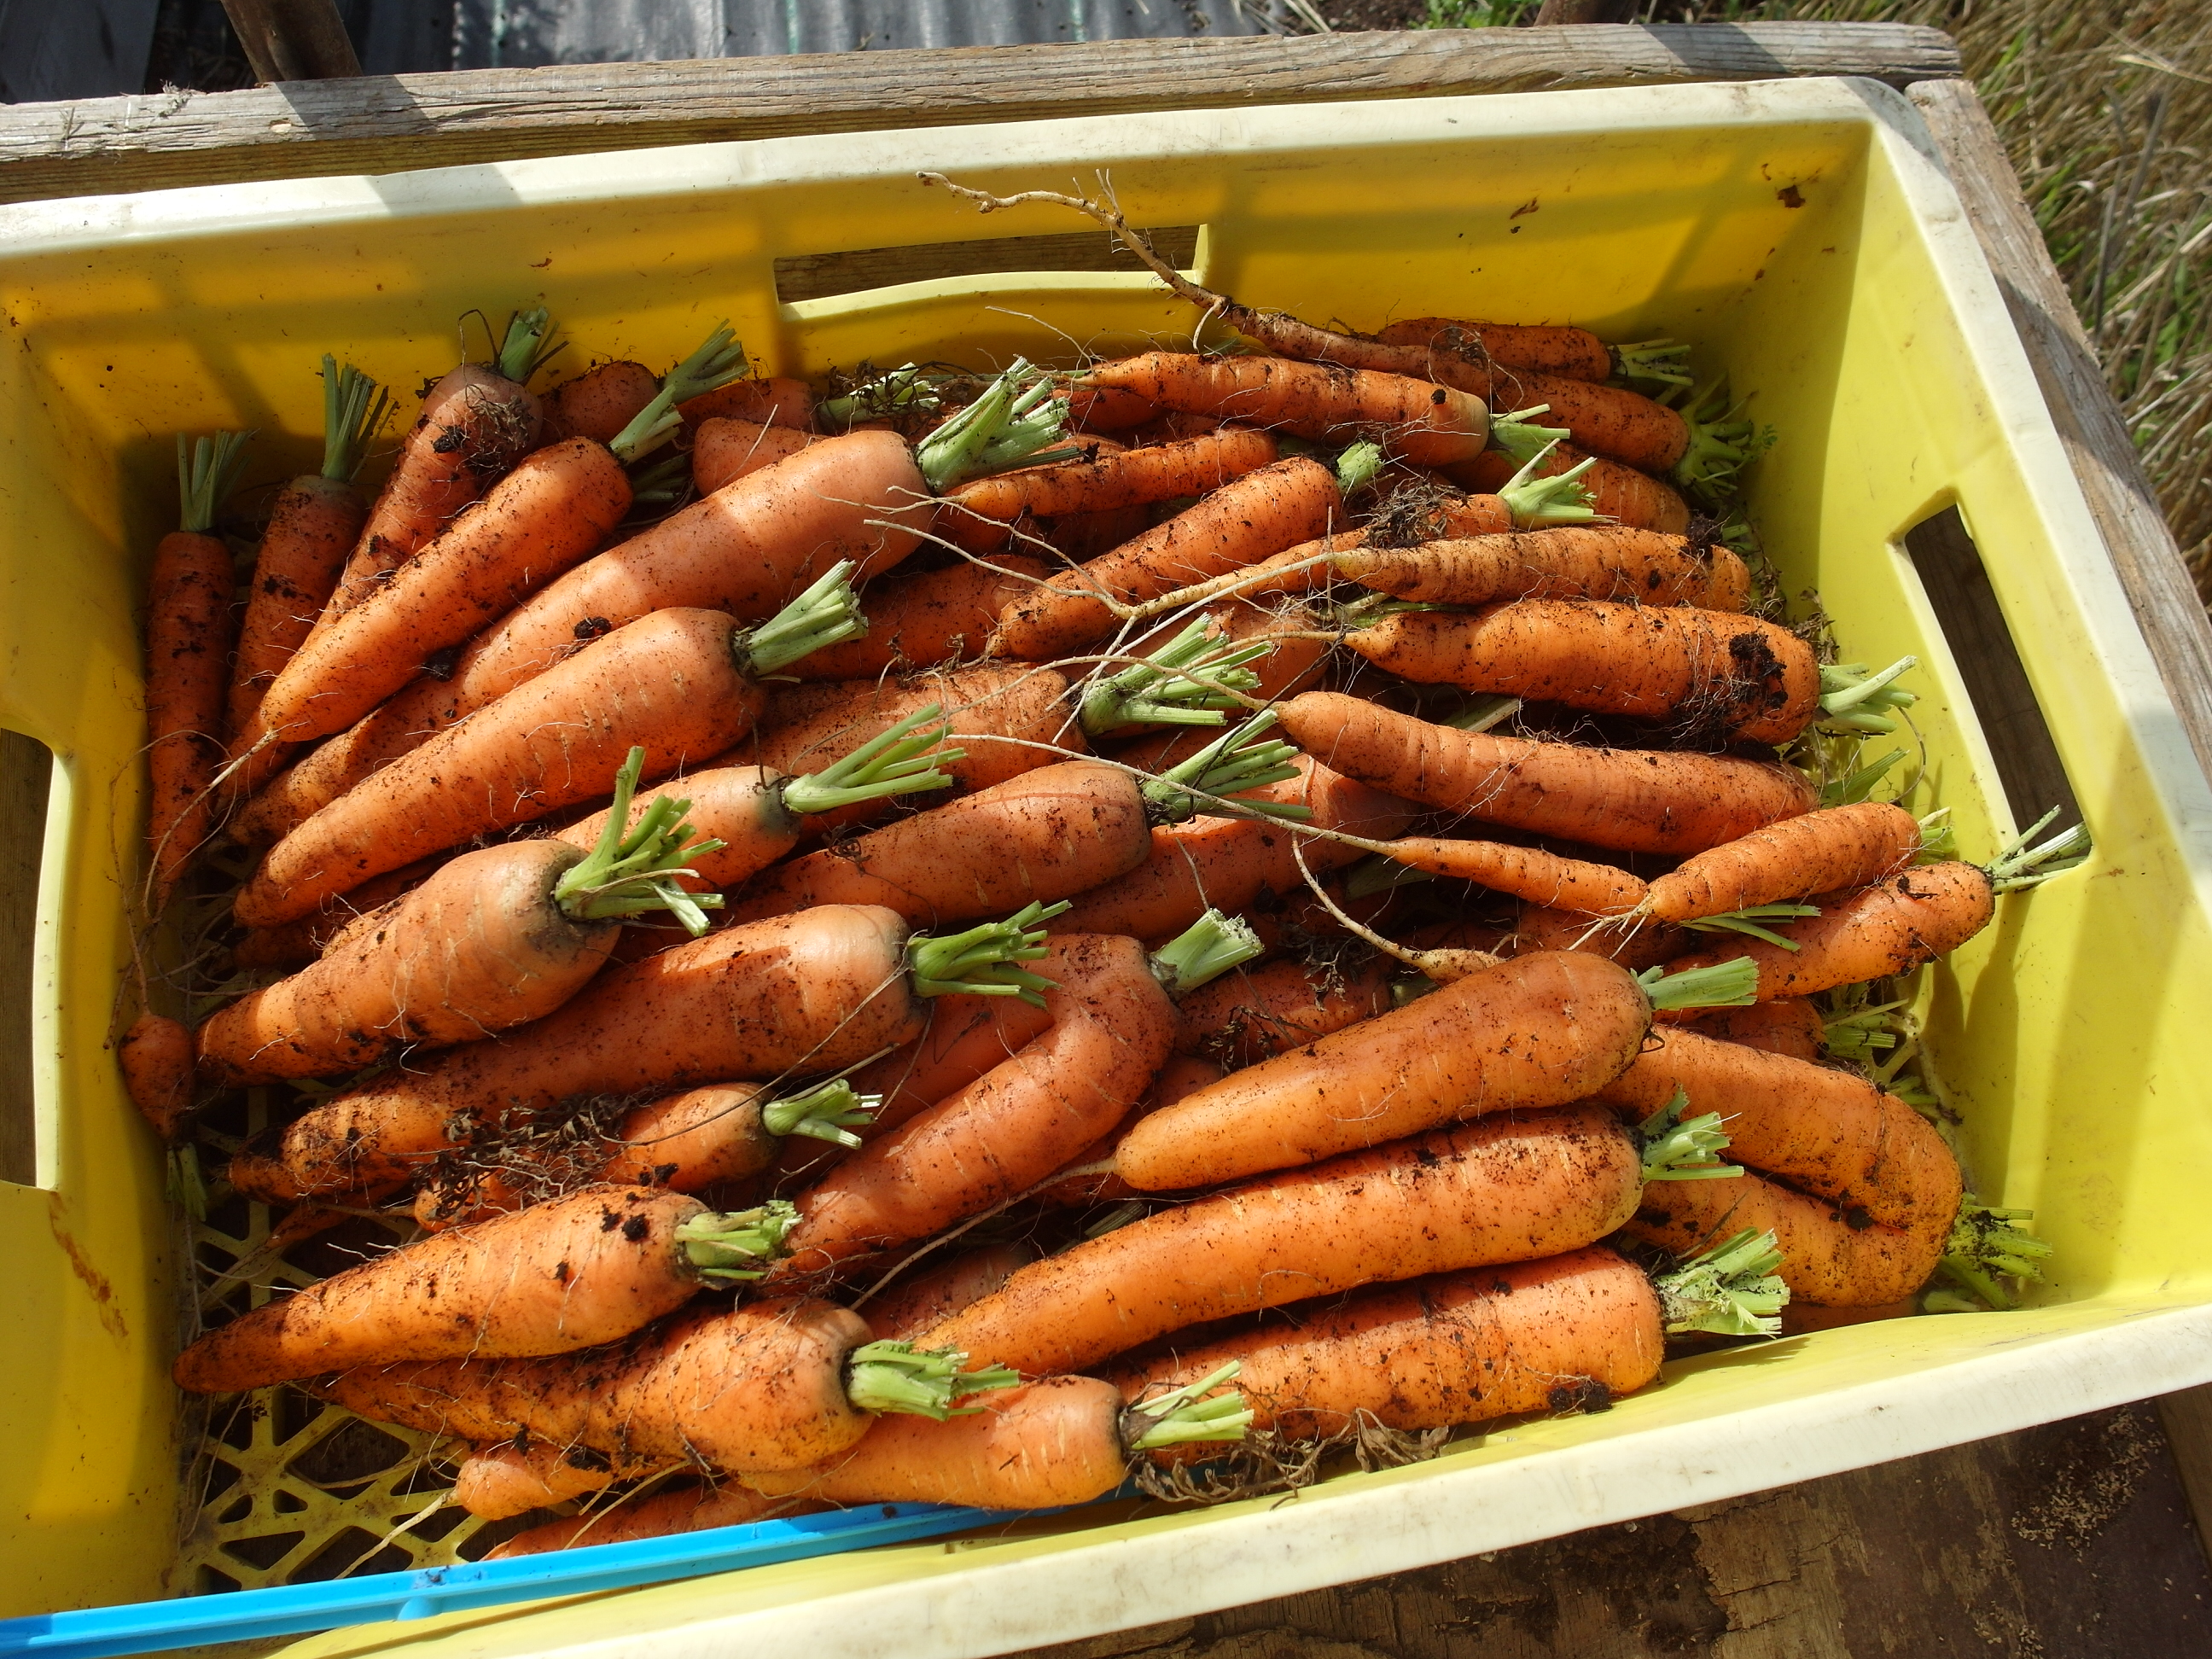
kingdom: Plantae
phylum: Tracheophyta
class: Magnoliopsida
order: Apiales
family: Apiaceae
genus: Daucus
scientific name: Daucus carota
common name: Wild carrot
